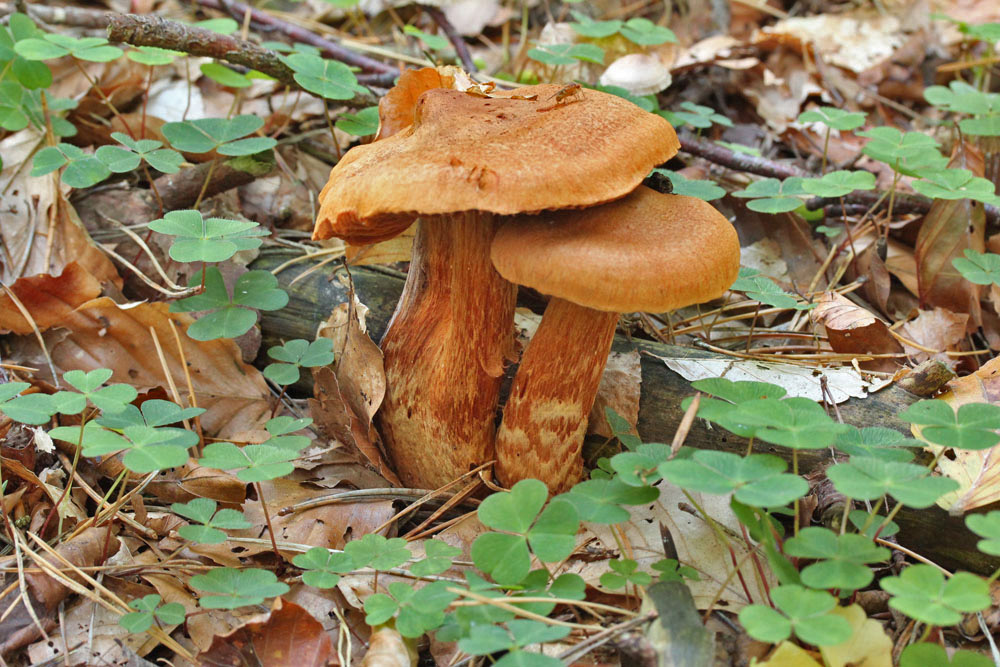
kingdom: Fungi
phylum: Basidiomycota
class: Agaricomycetes
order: Agaricales
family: Cortinariaceae
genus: Cortinarius
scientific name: Cortinarius rubellus
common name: puklet gift-slørhat
